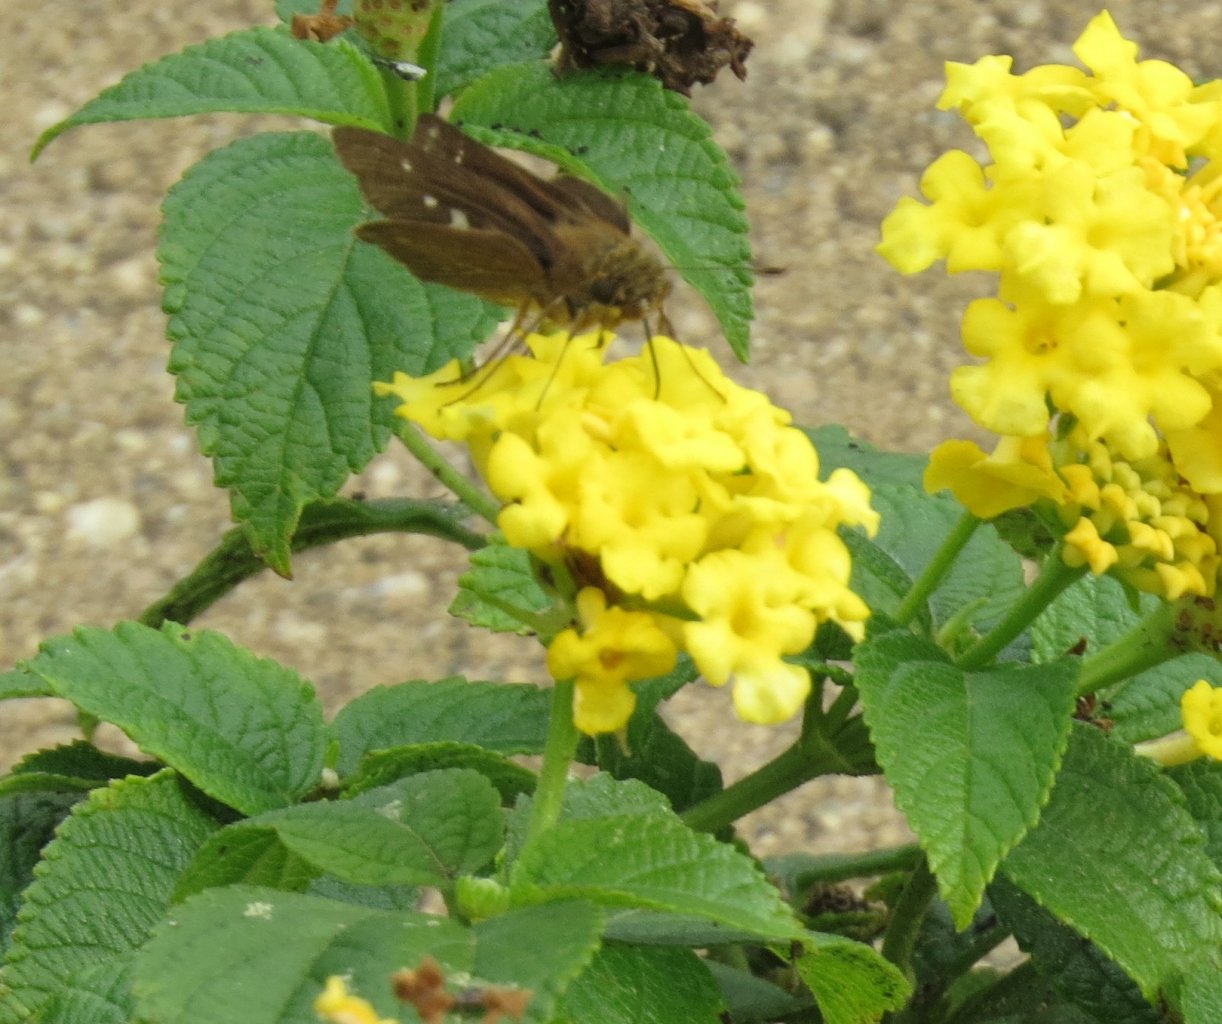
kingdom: Animalia
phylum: Arthropoda
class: Insecta
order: Lepidoptera
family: Hesperiidae
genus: Panoquina
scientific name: Panoquina ocola
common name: Ocola Skipper
